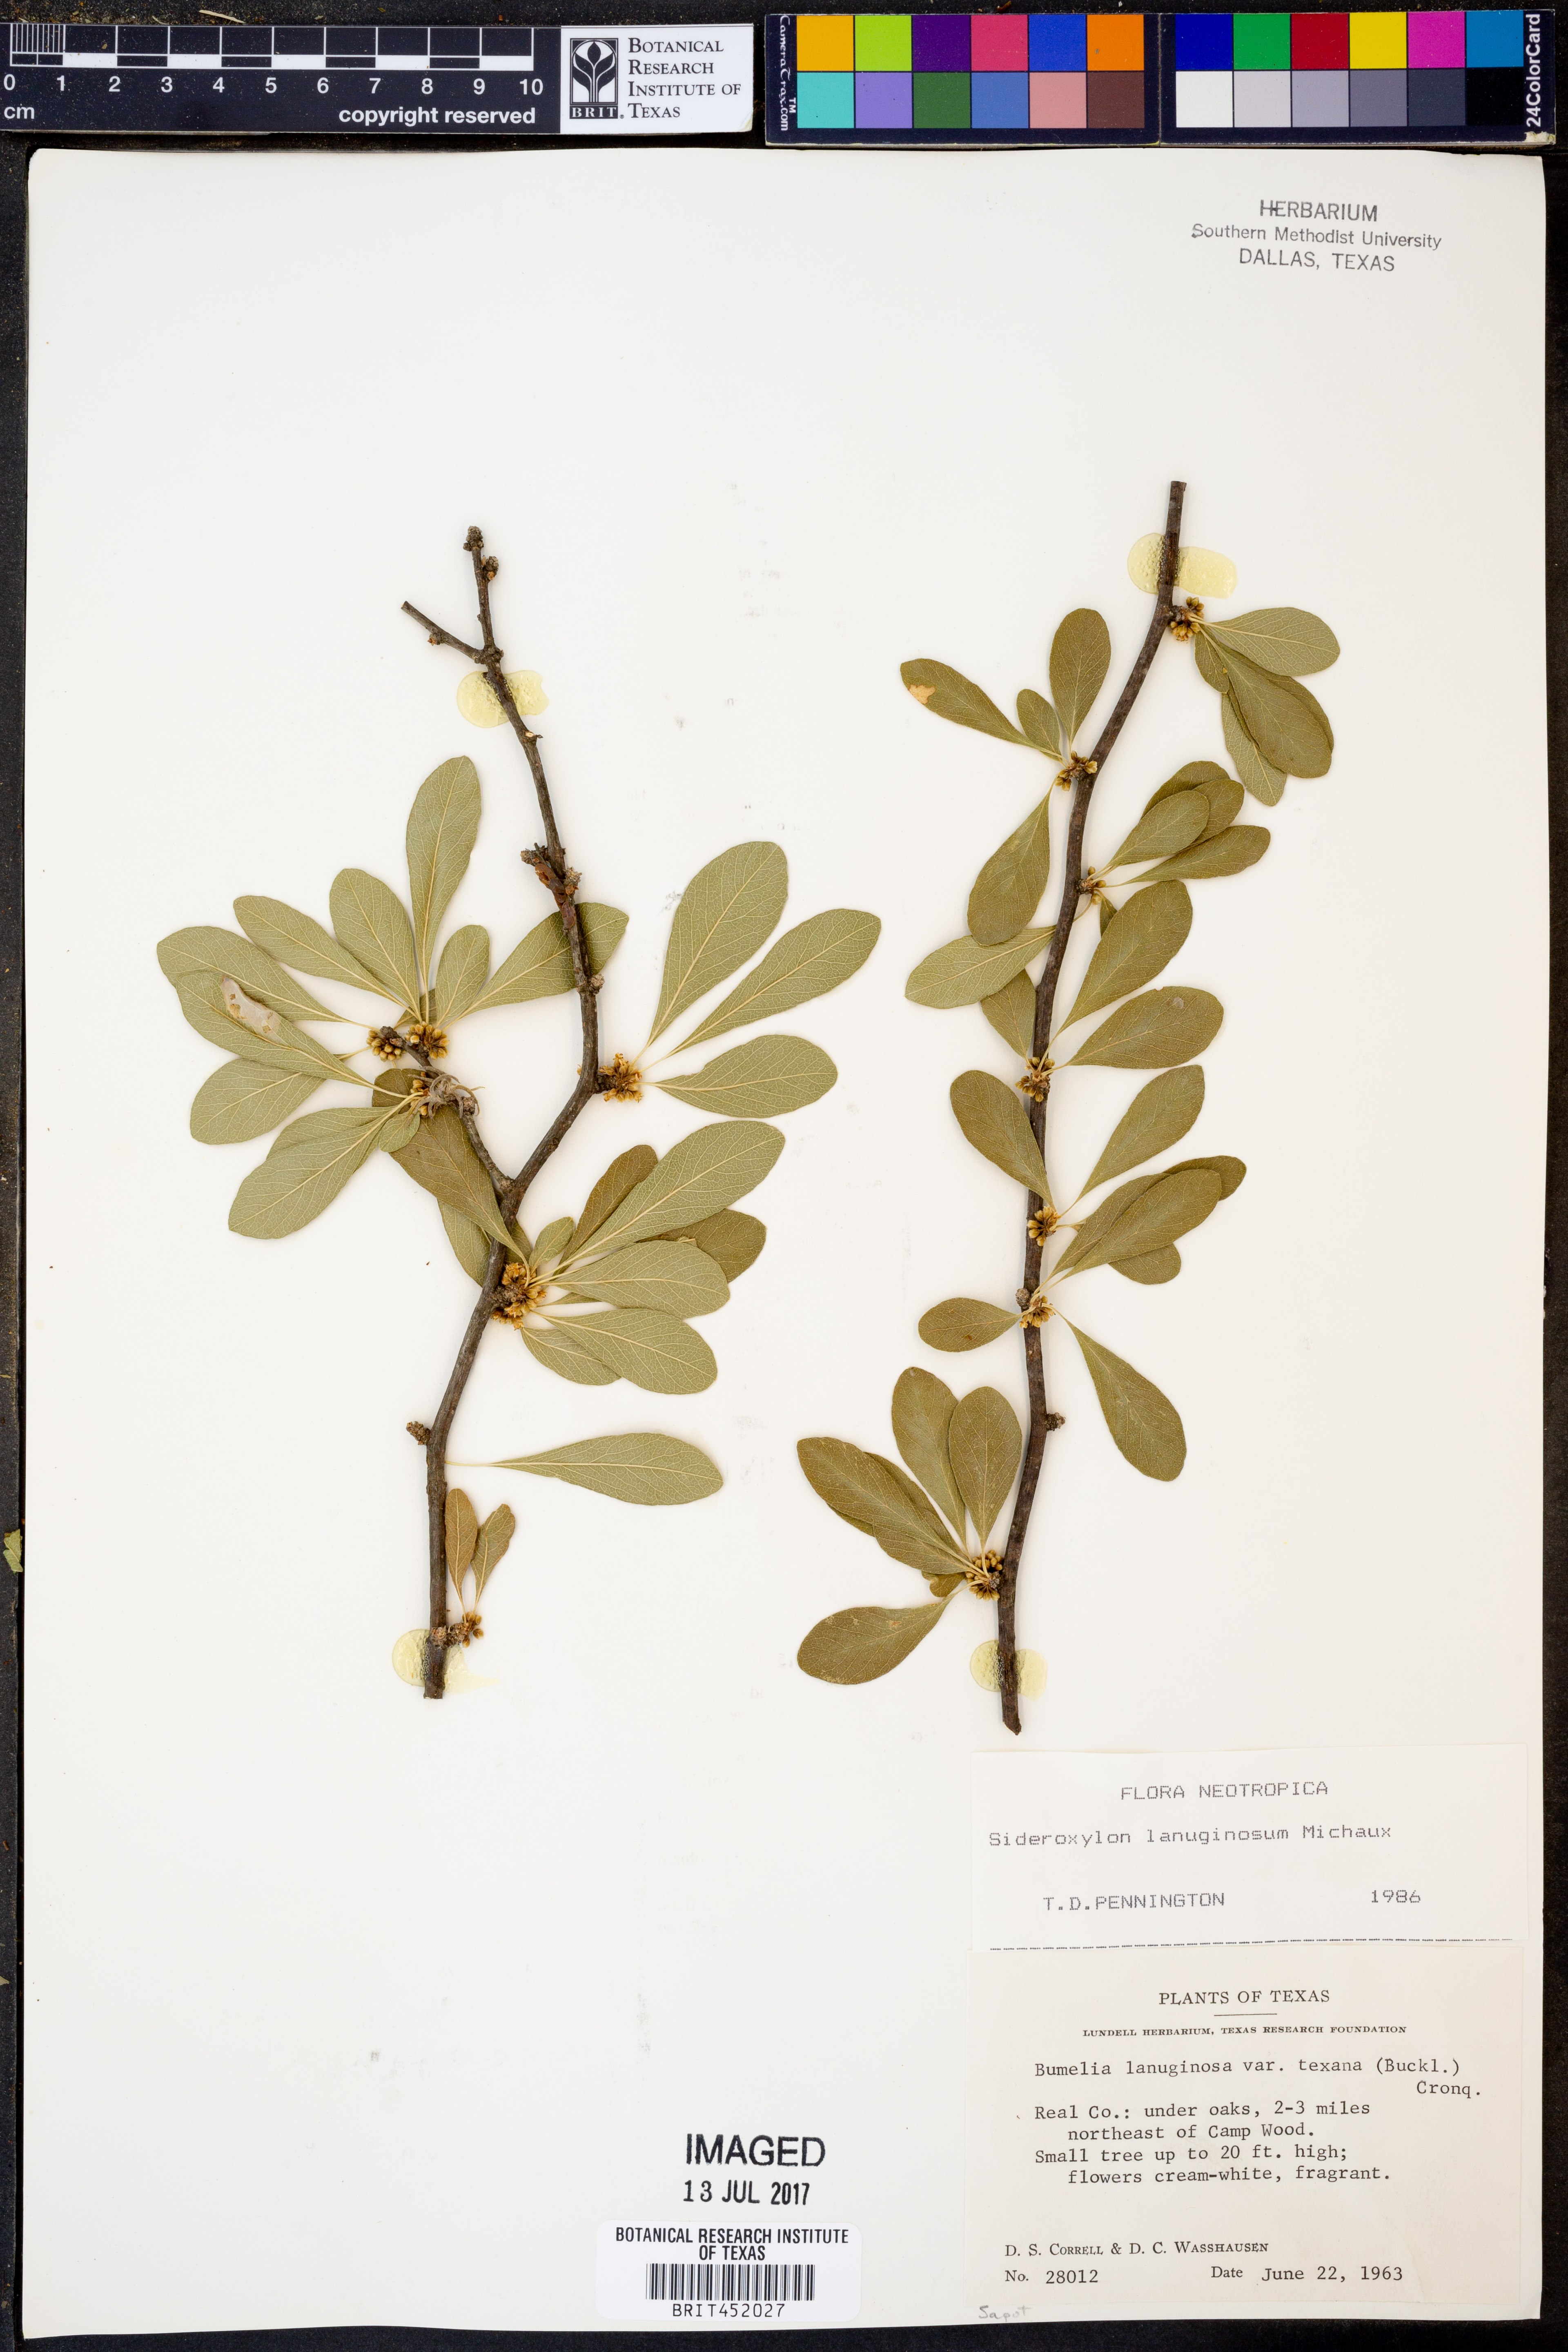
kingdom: Plantae
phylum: Tracheophyta
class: Magnoliopsida
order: Ericales
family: Sapotaceae
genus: Sideroxylon
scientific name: Sideroxylon lanuginosum
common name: Chittamwood
